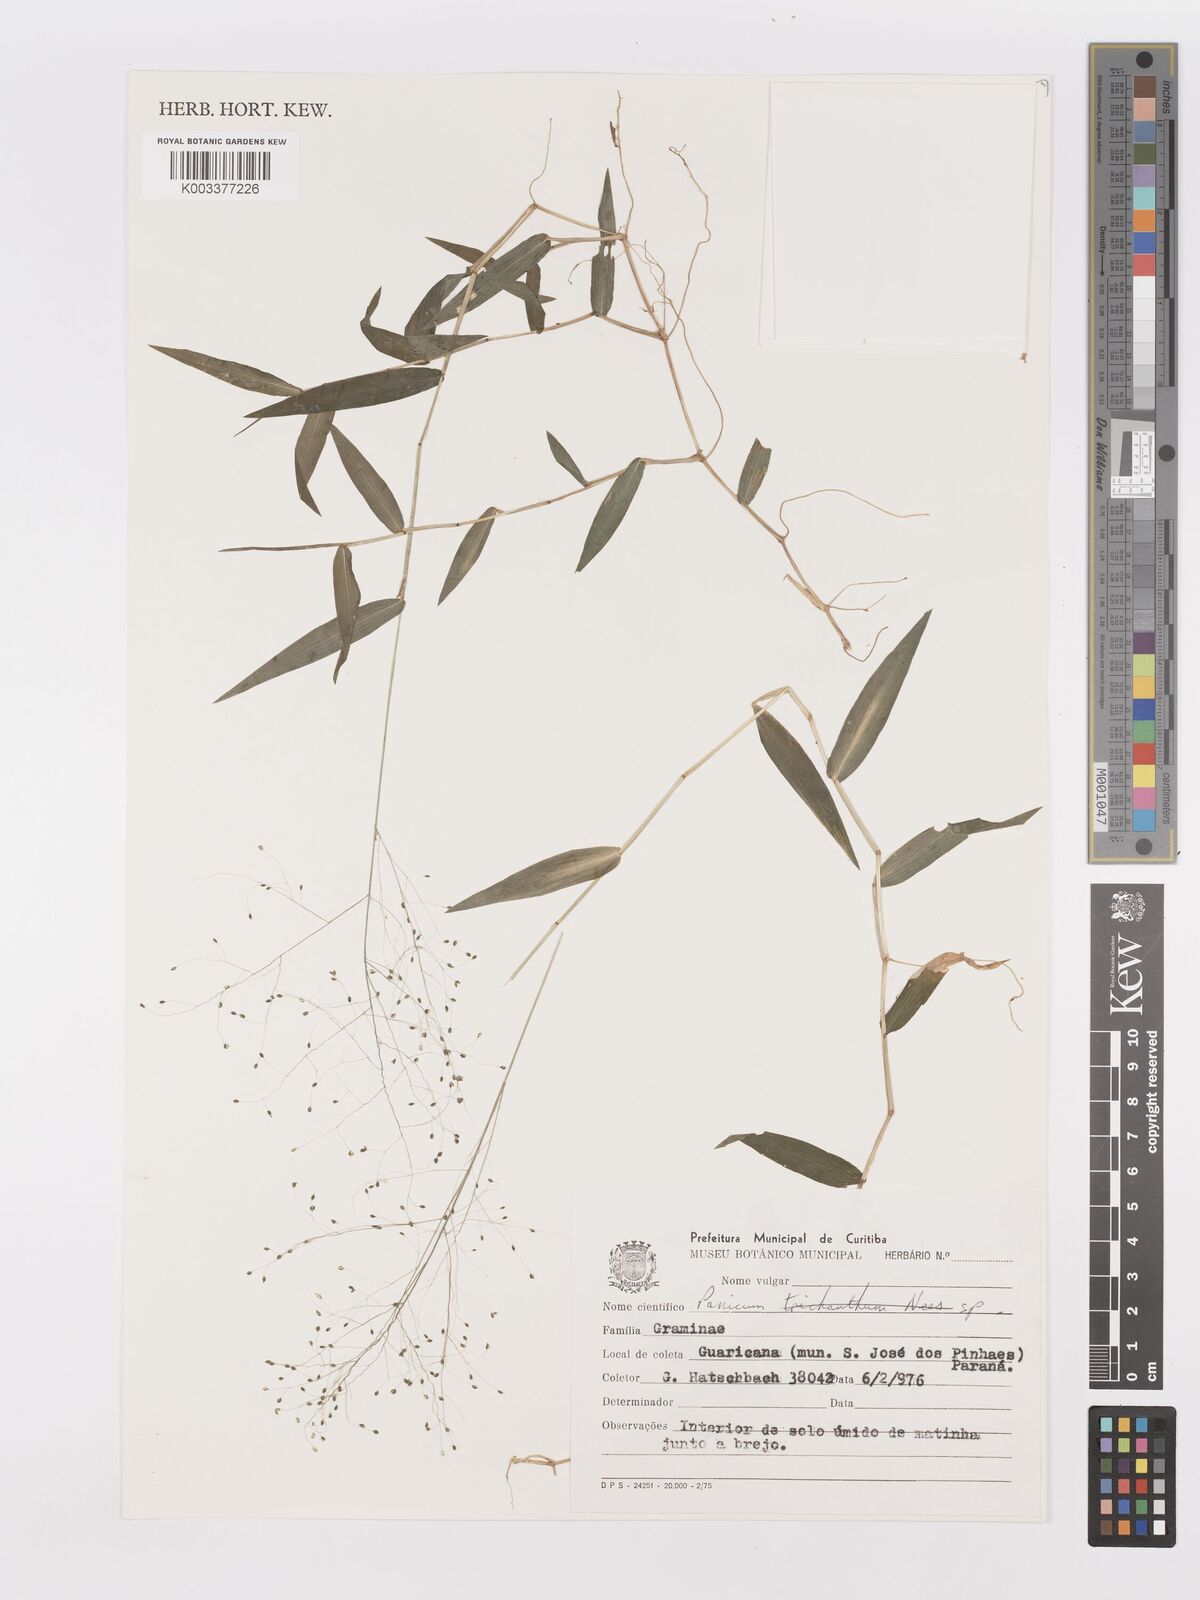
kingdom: Plantae
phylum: Tracheophyta
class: Liliopsida
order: Poales
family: Poaceae
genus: Trichanthecium
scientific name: Trichanthecium schwackeanum
